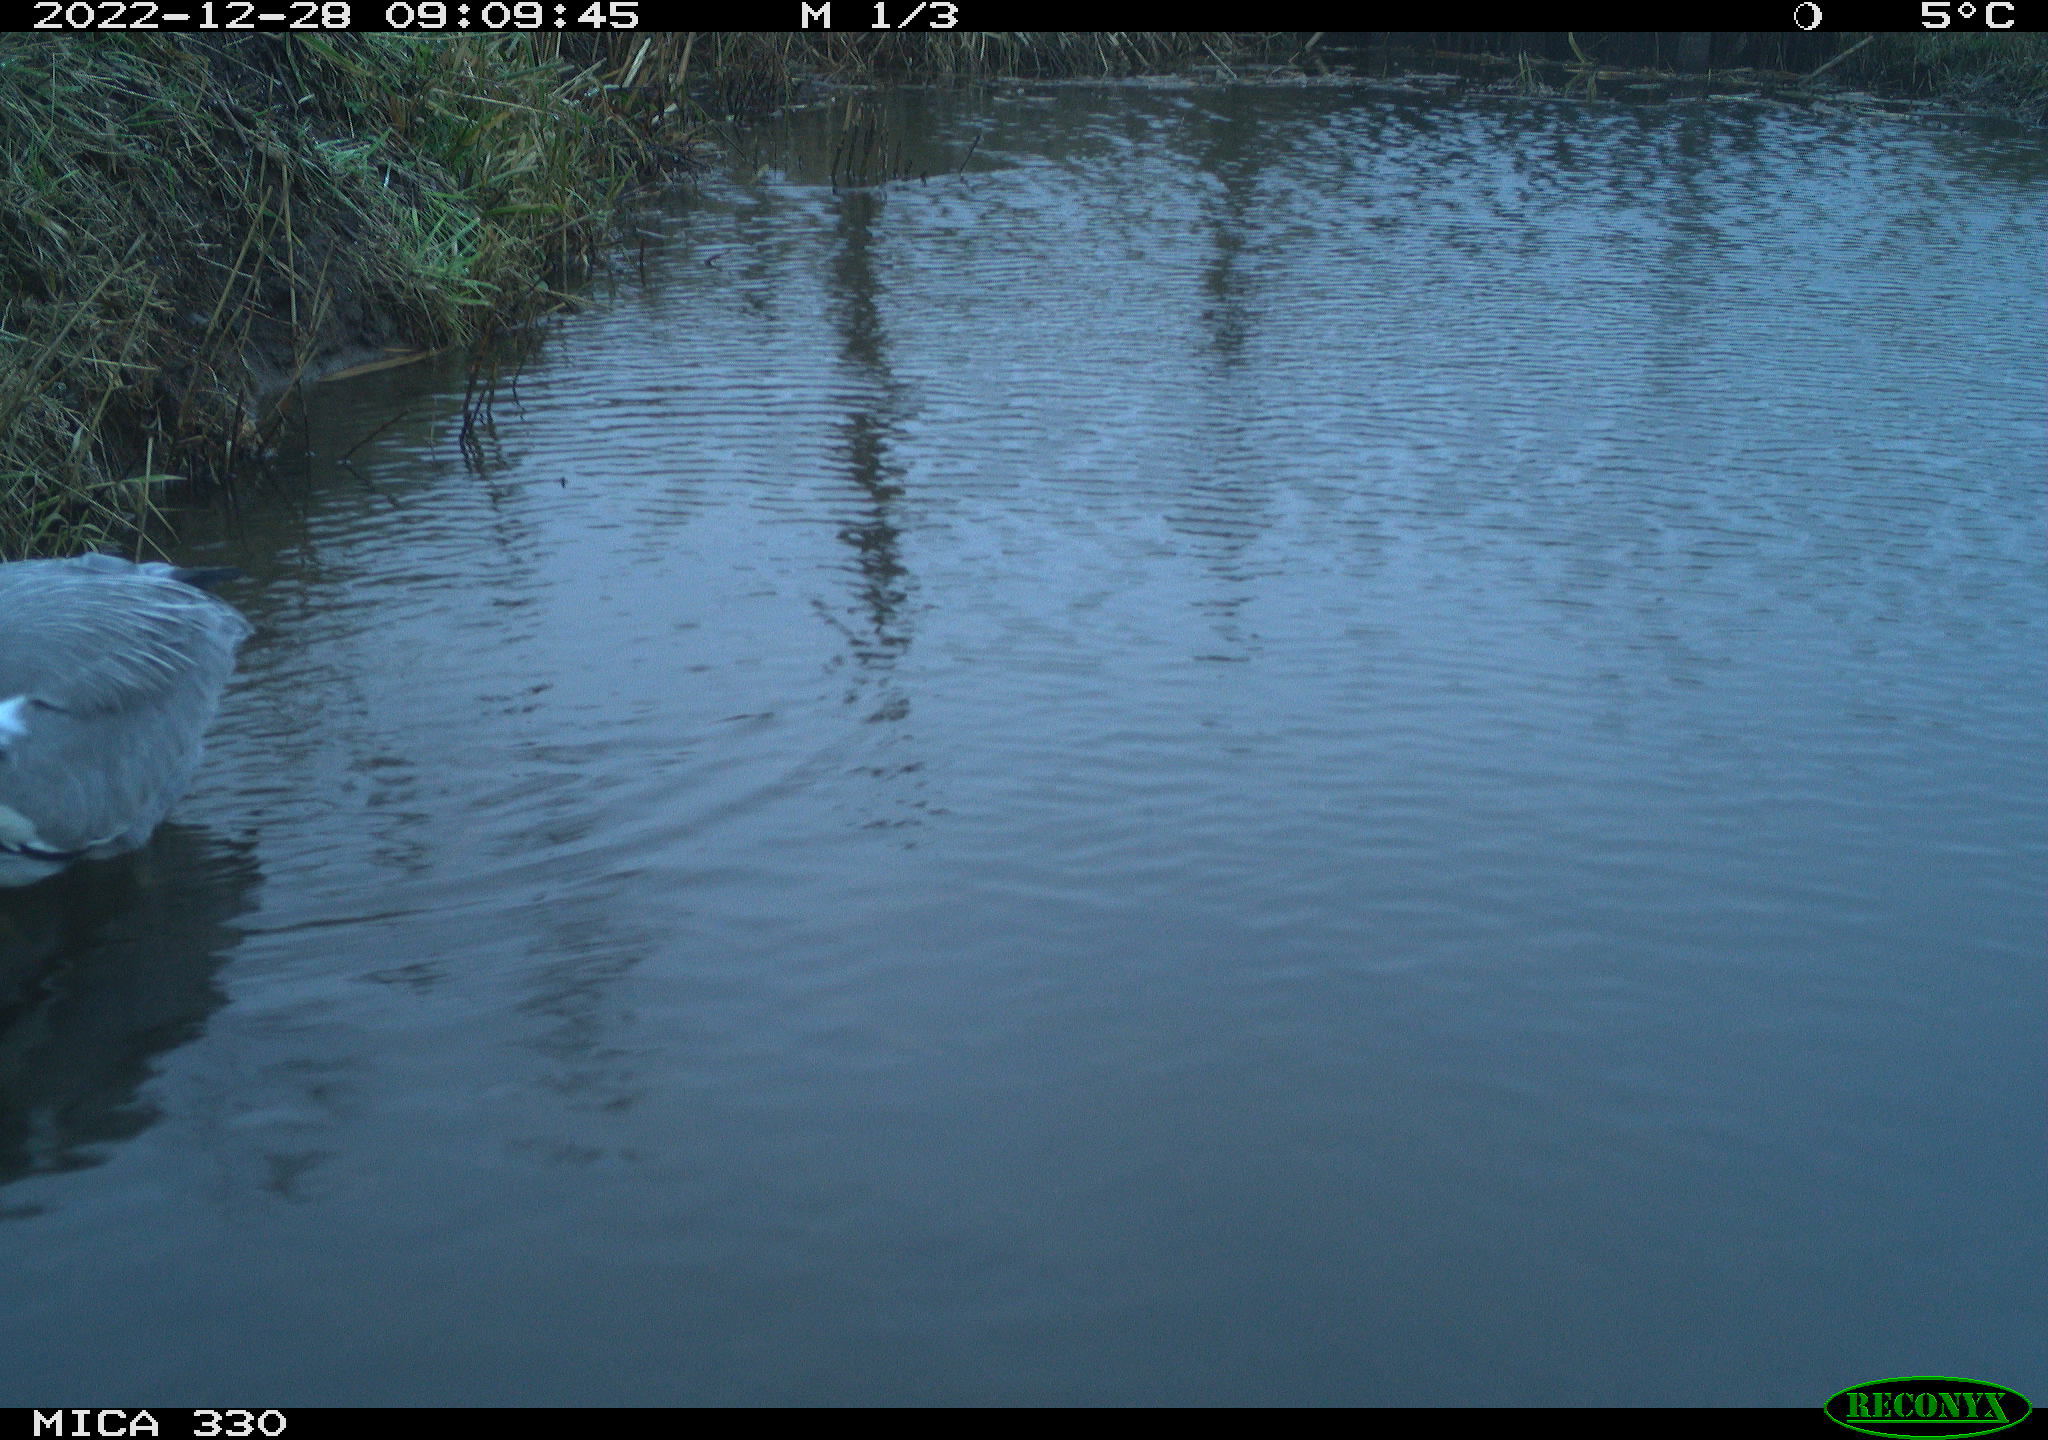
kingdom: Animalia
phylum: Chordata
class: Aves
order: Pelecaniformes
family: Ardeidae
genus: Ardea
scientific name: Ardea cinerea
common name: Grey heron
